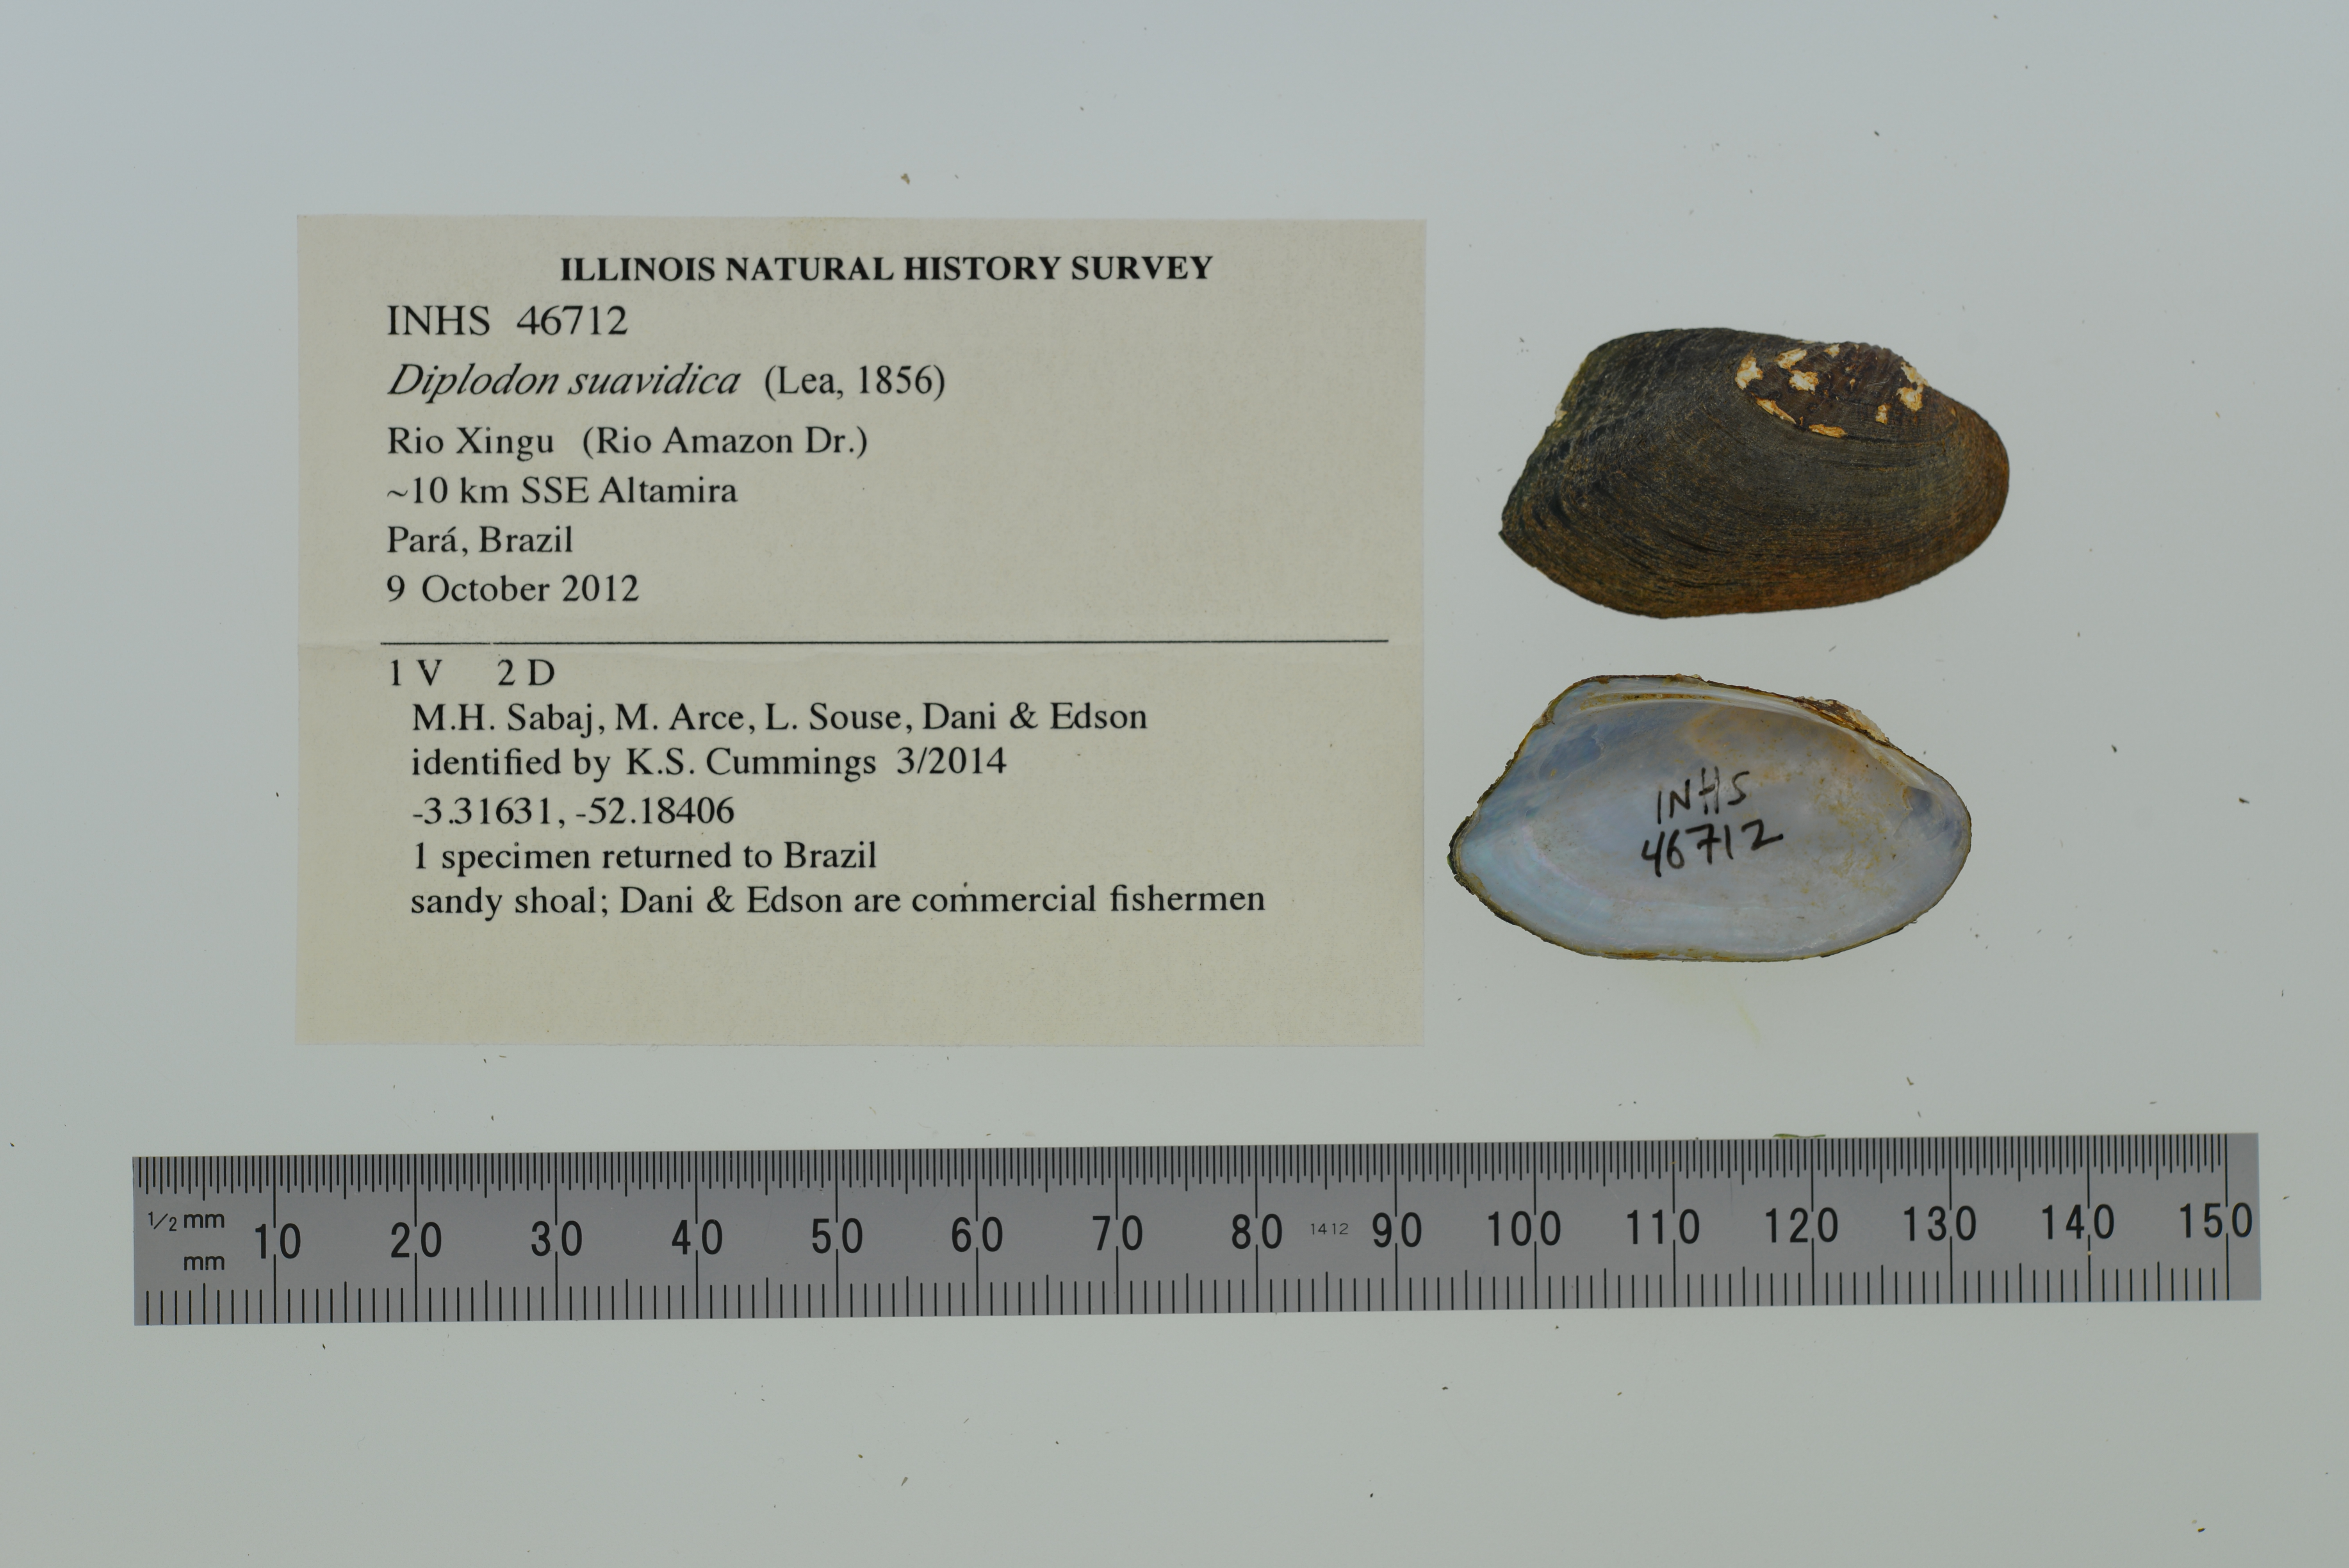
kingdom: Animalia
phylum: Mollusca
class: Bivalvia
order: Unionida
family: Hyriidae
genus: Diplodon
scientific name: Diplodon suavidicus
